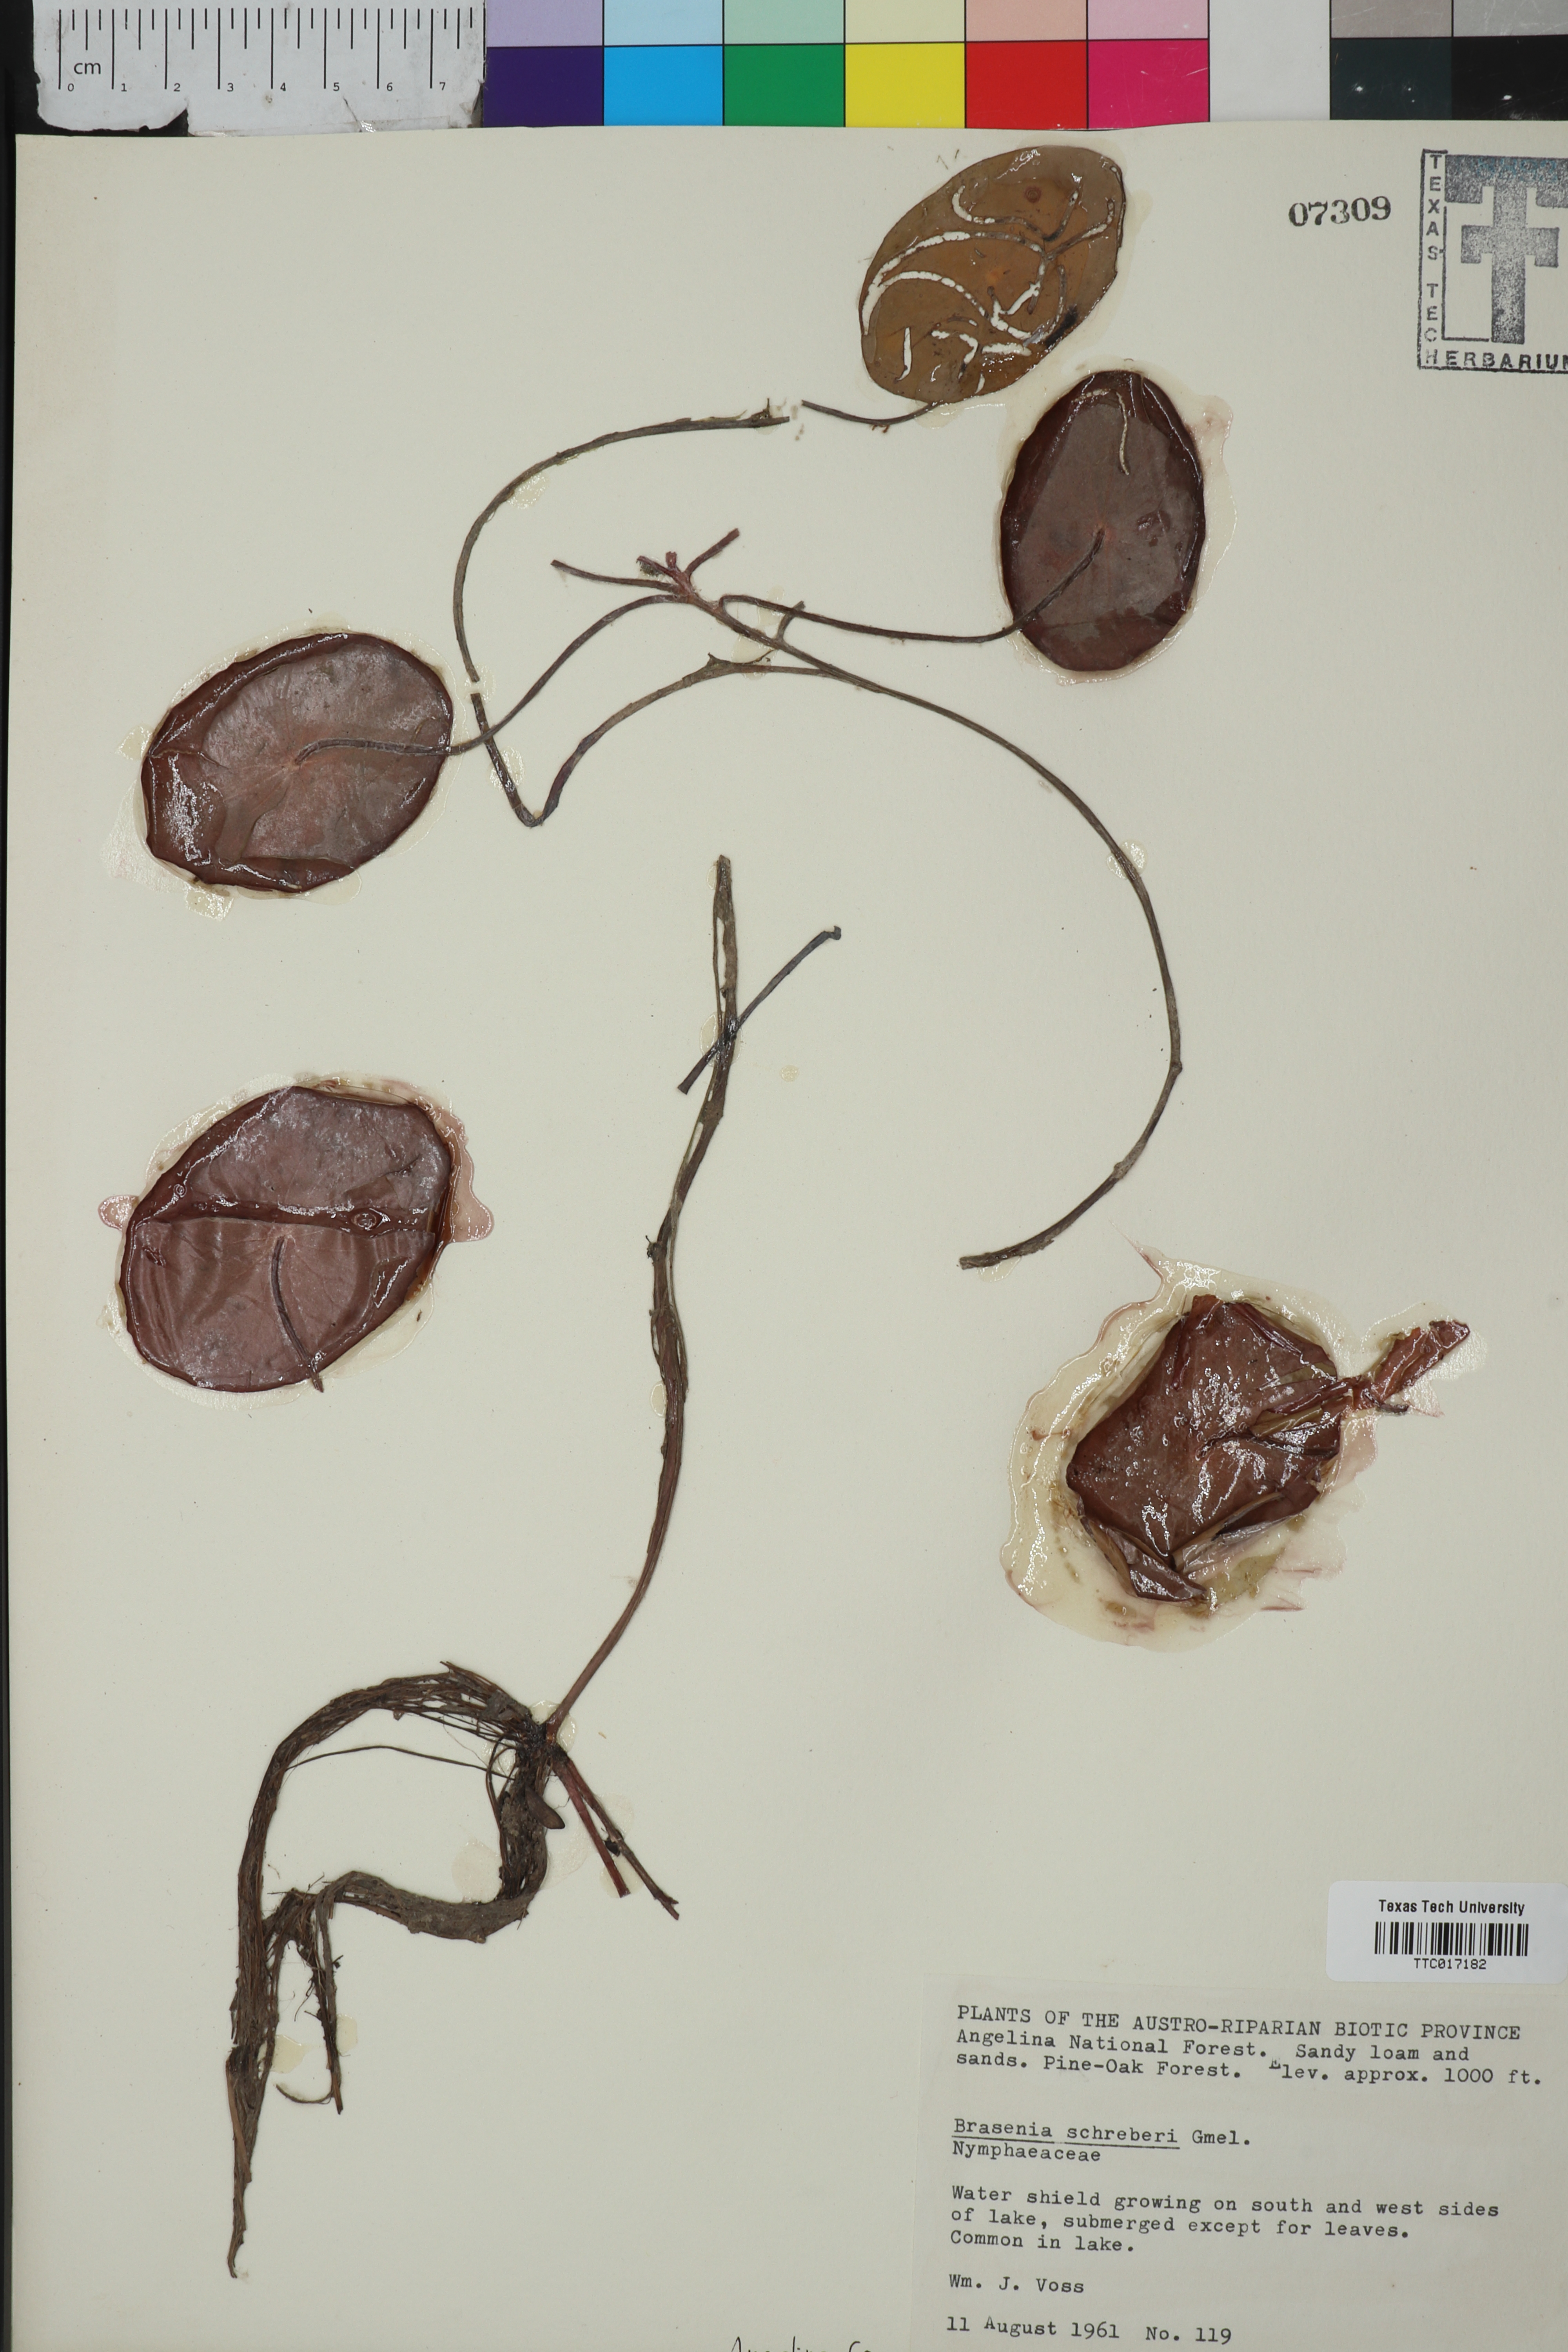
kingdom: Plantae
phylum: Tracheophyta
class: Magnoliopsida
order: Nymphaeales
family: Cabombaceae
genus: Brasenia
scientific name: Brasenia schreberi
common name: Water-shield
